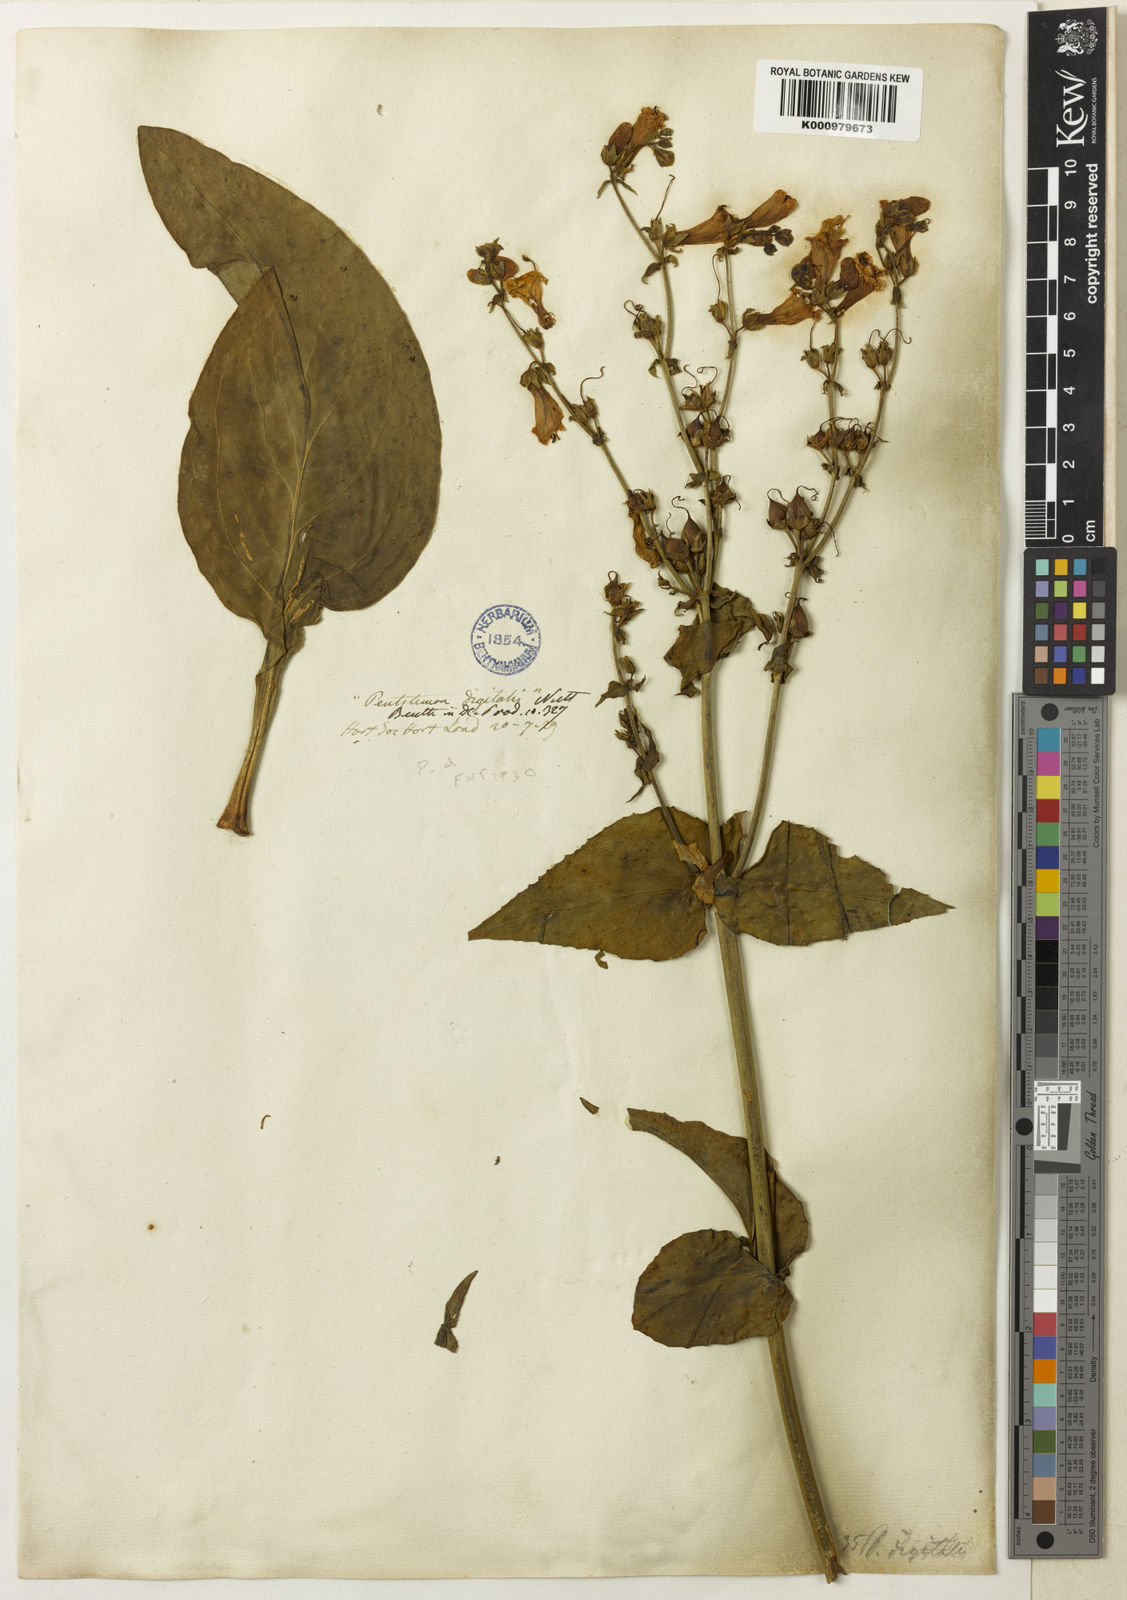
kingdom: Plantae
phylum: Tracheophyta
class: Magnoliopsida
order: Lamiales
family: Plantaginaceae
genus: Penstemon
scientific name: Penstemon digitalis
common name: Foxglove beardtongue
